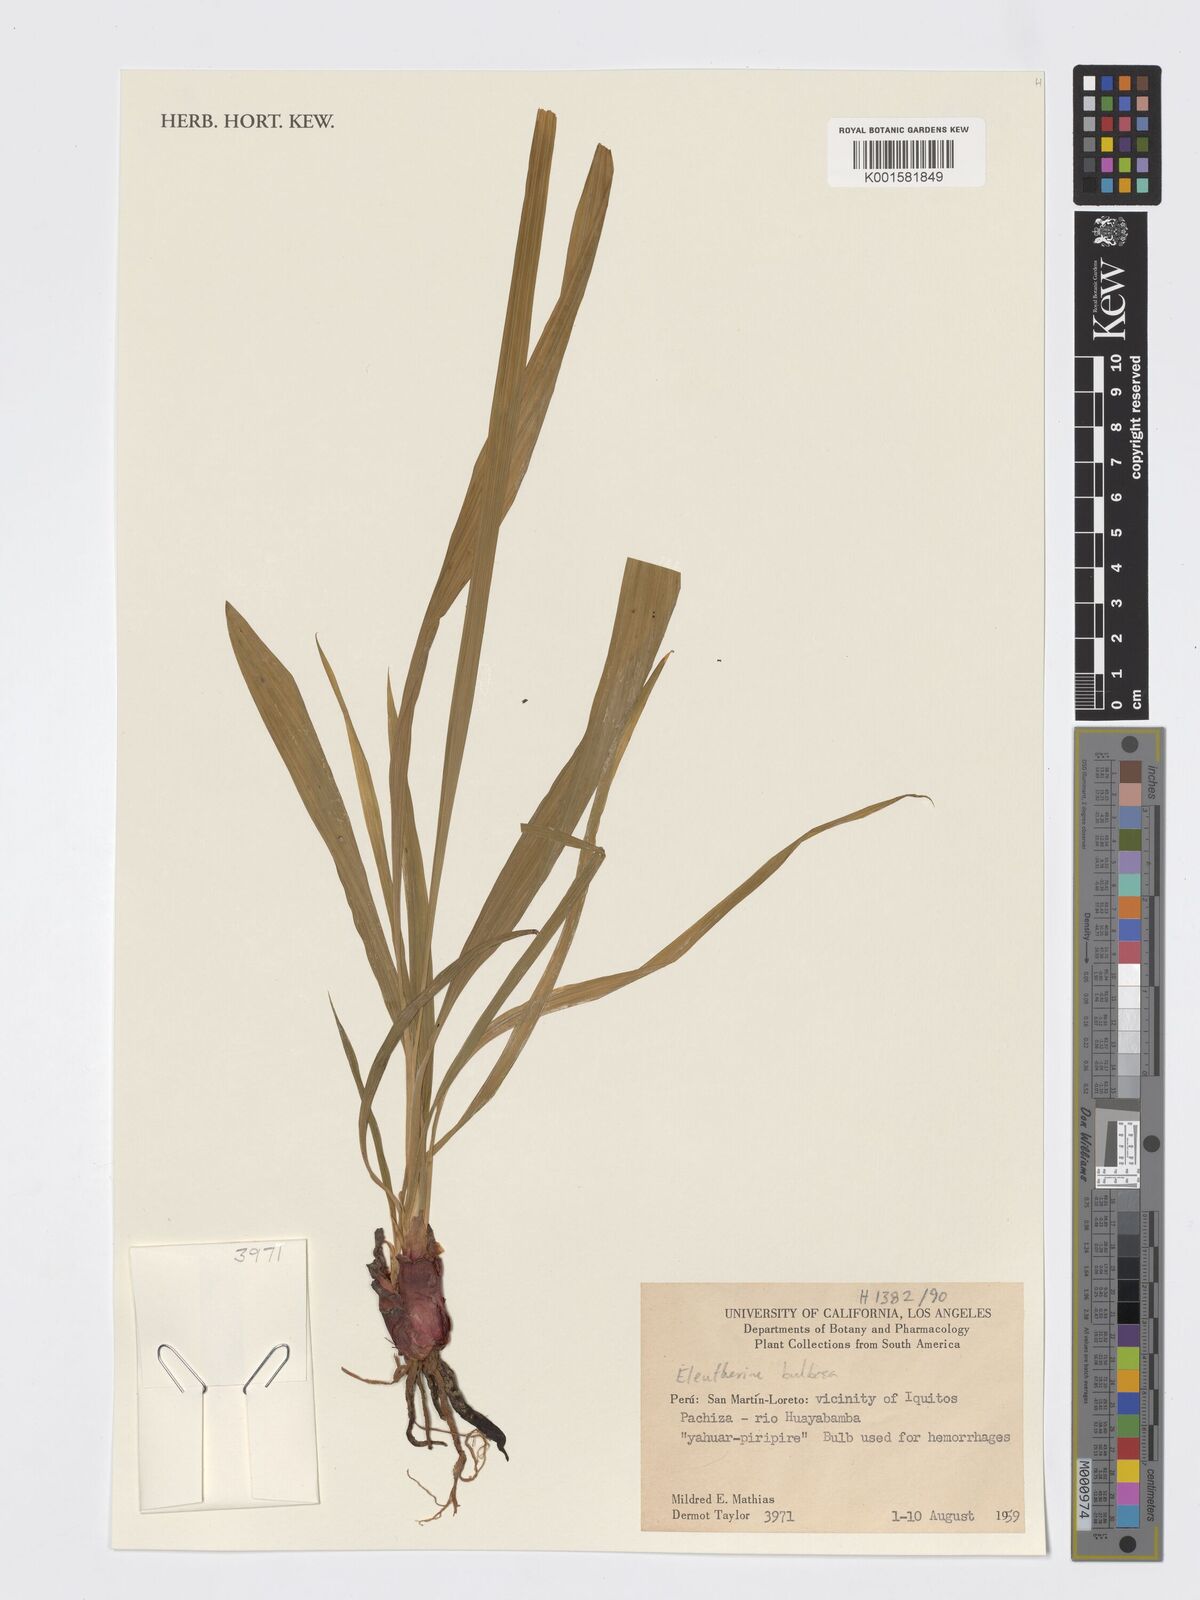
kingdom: Plantae
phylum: Tracheophyta
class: Liliopsida
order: Asparagales
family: Iridaceae
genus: Eleutherine
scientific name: Eleutherine bulbosa
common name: Lagrimas de la virgen
